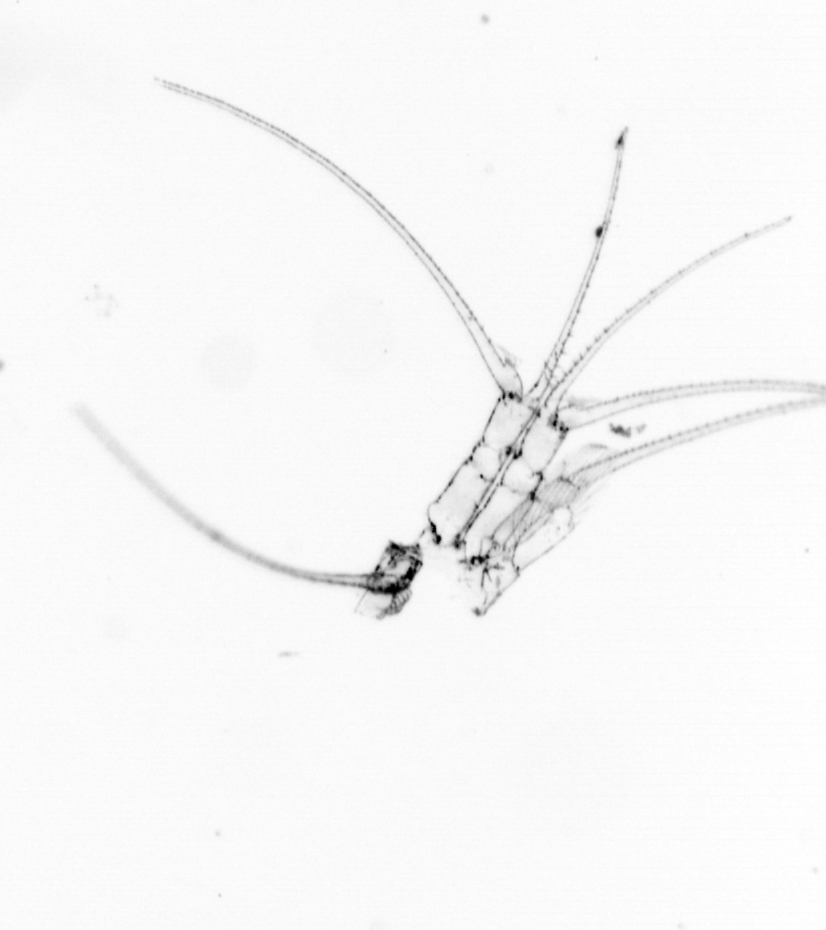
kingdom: Chromista
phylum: Ochrophyta
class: Bacillariophyceae
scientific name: Bacillariophyceae
